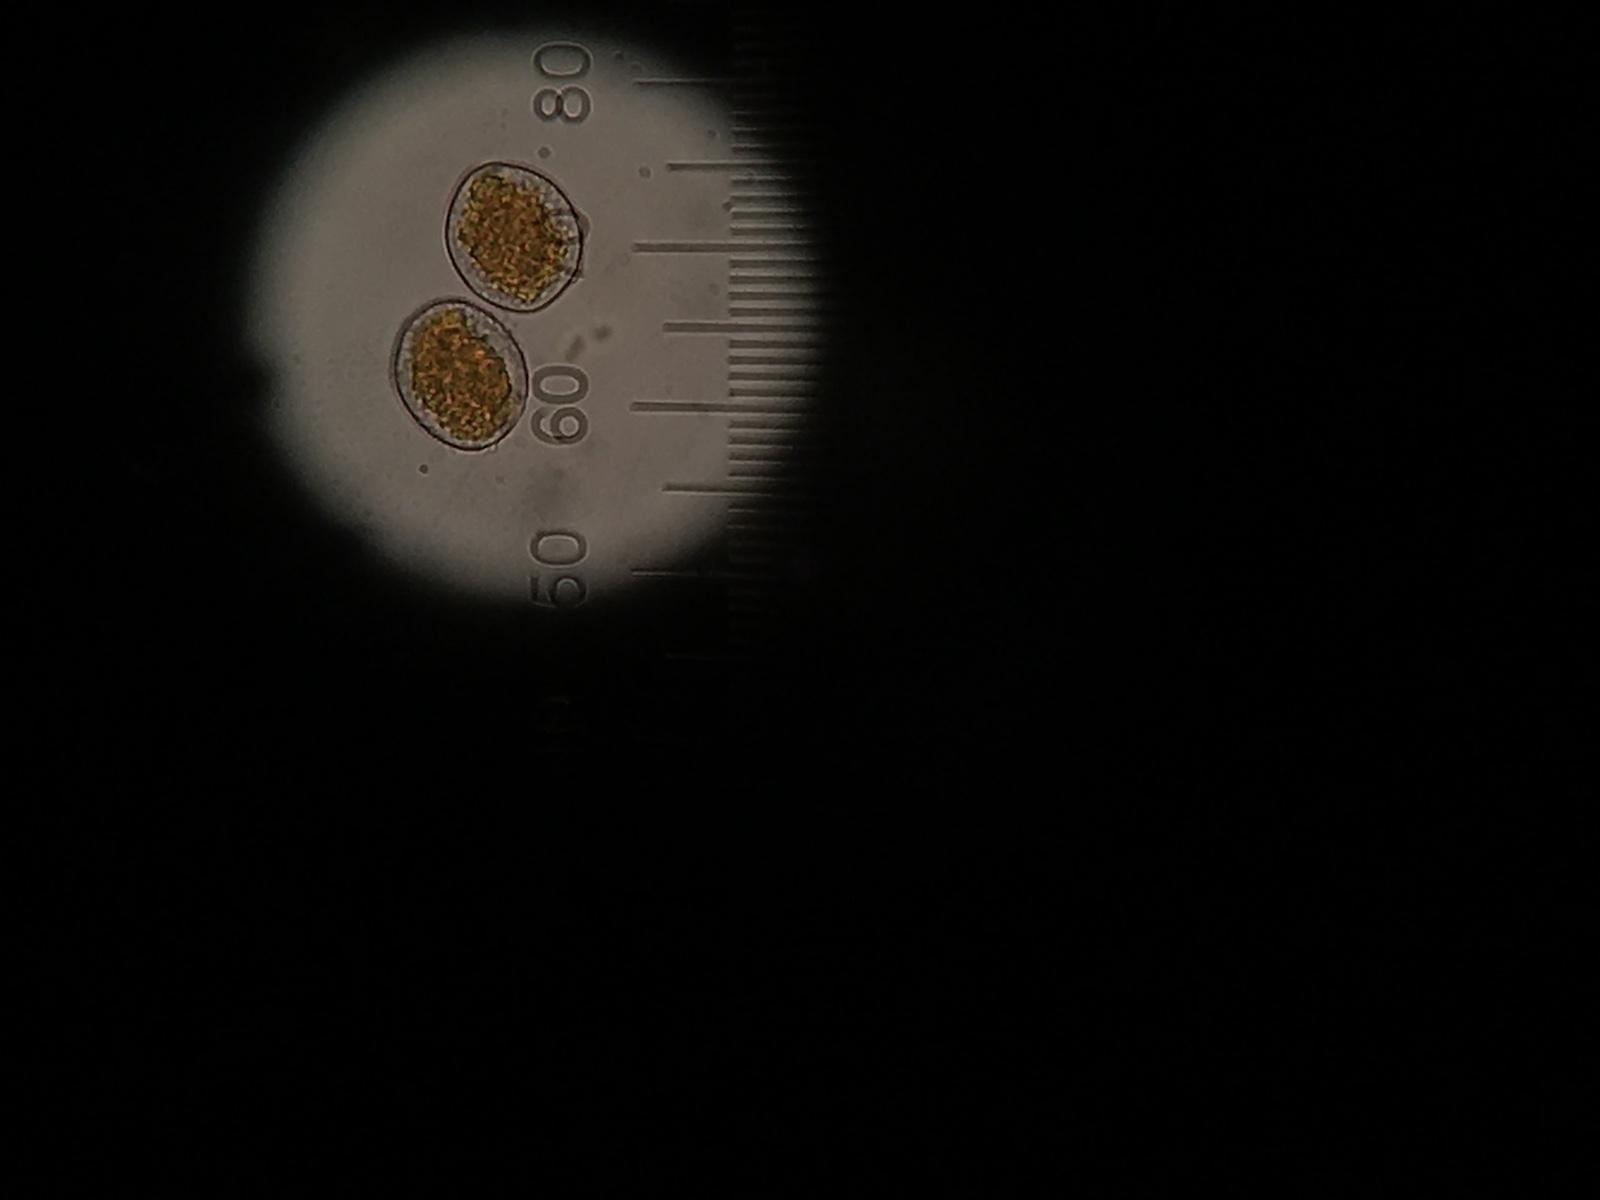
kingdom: Fungi
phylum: Basidiomycota
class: Pucciniomycetes
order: Pucciniales
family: Pucciniaceae
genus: Puccinia
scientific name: Puccinia recondita
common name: Brown rust of wheat
